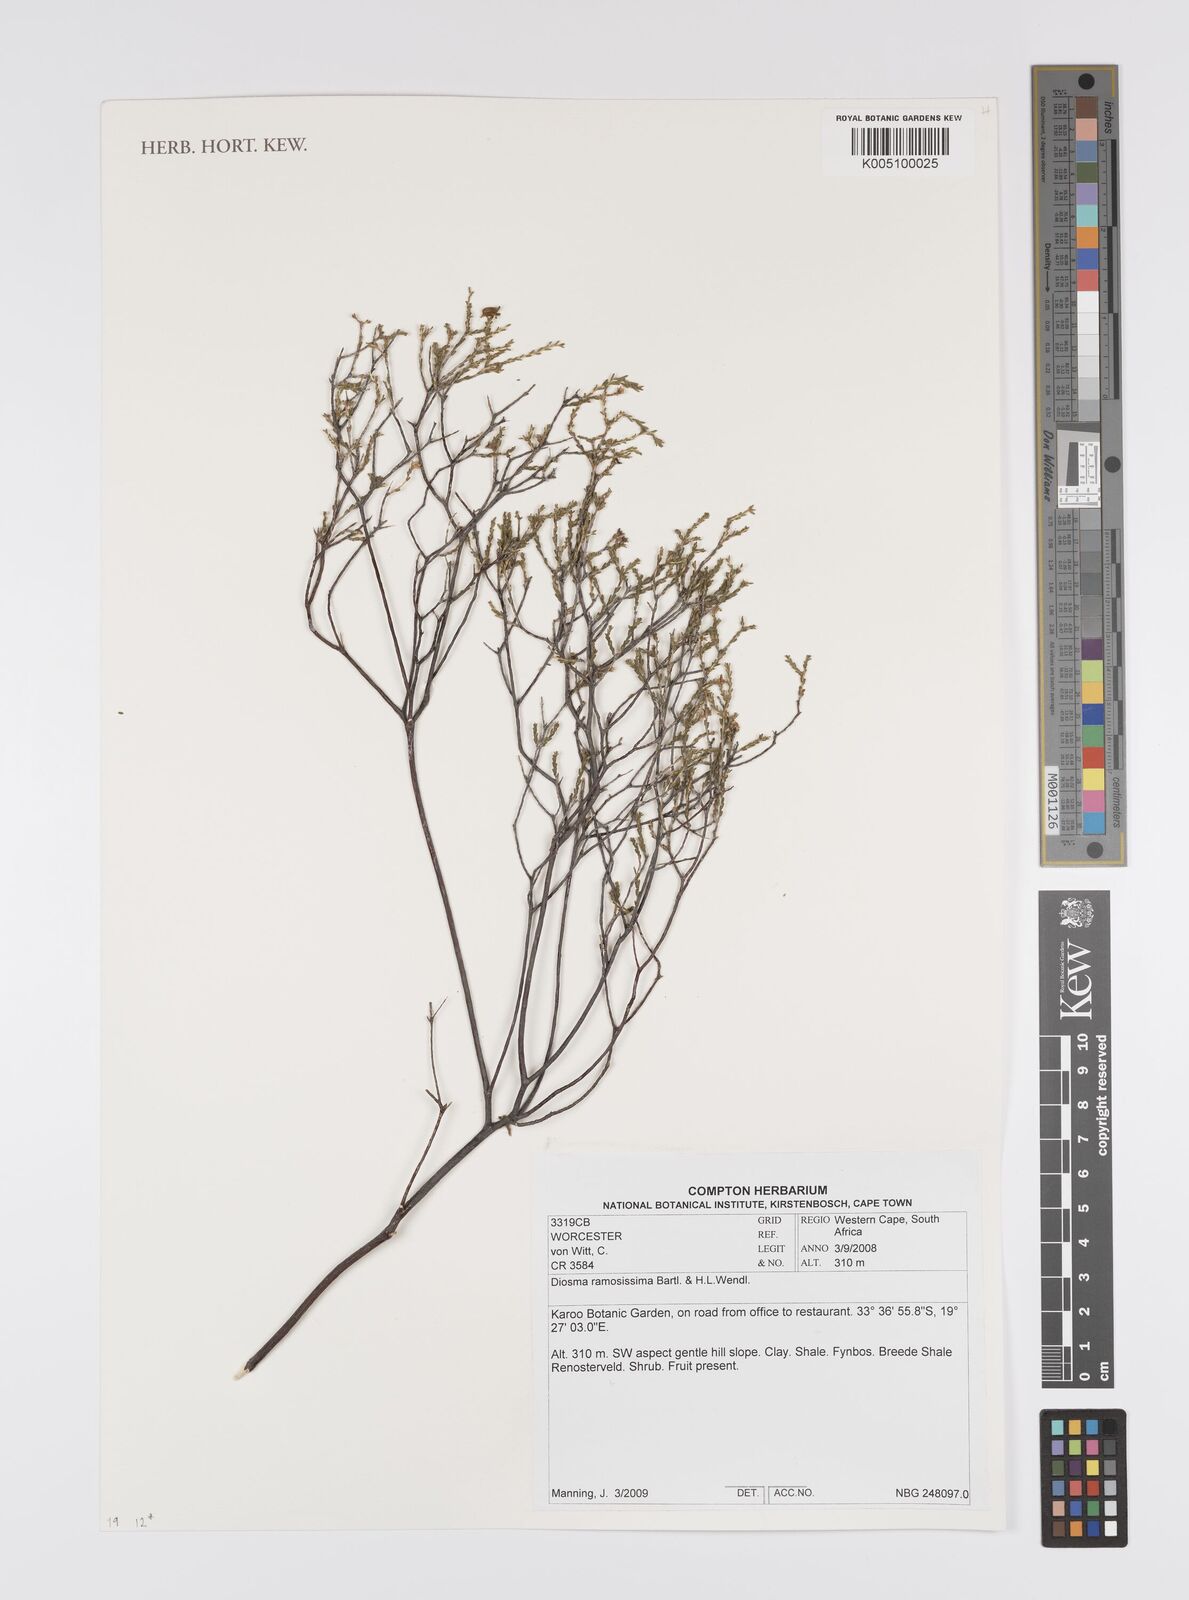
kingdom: Plantae
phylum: Tracheophyta
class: Magnoliopsida
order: Sapindales
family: Rutaceae
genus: Diosma
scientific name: Diosma ramosissima
